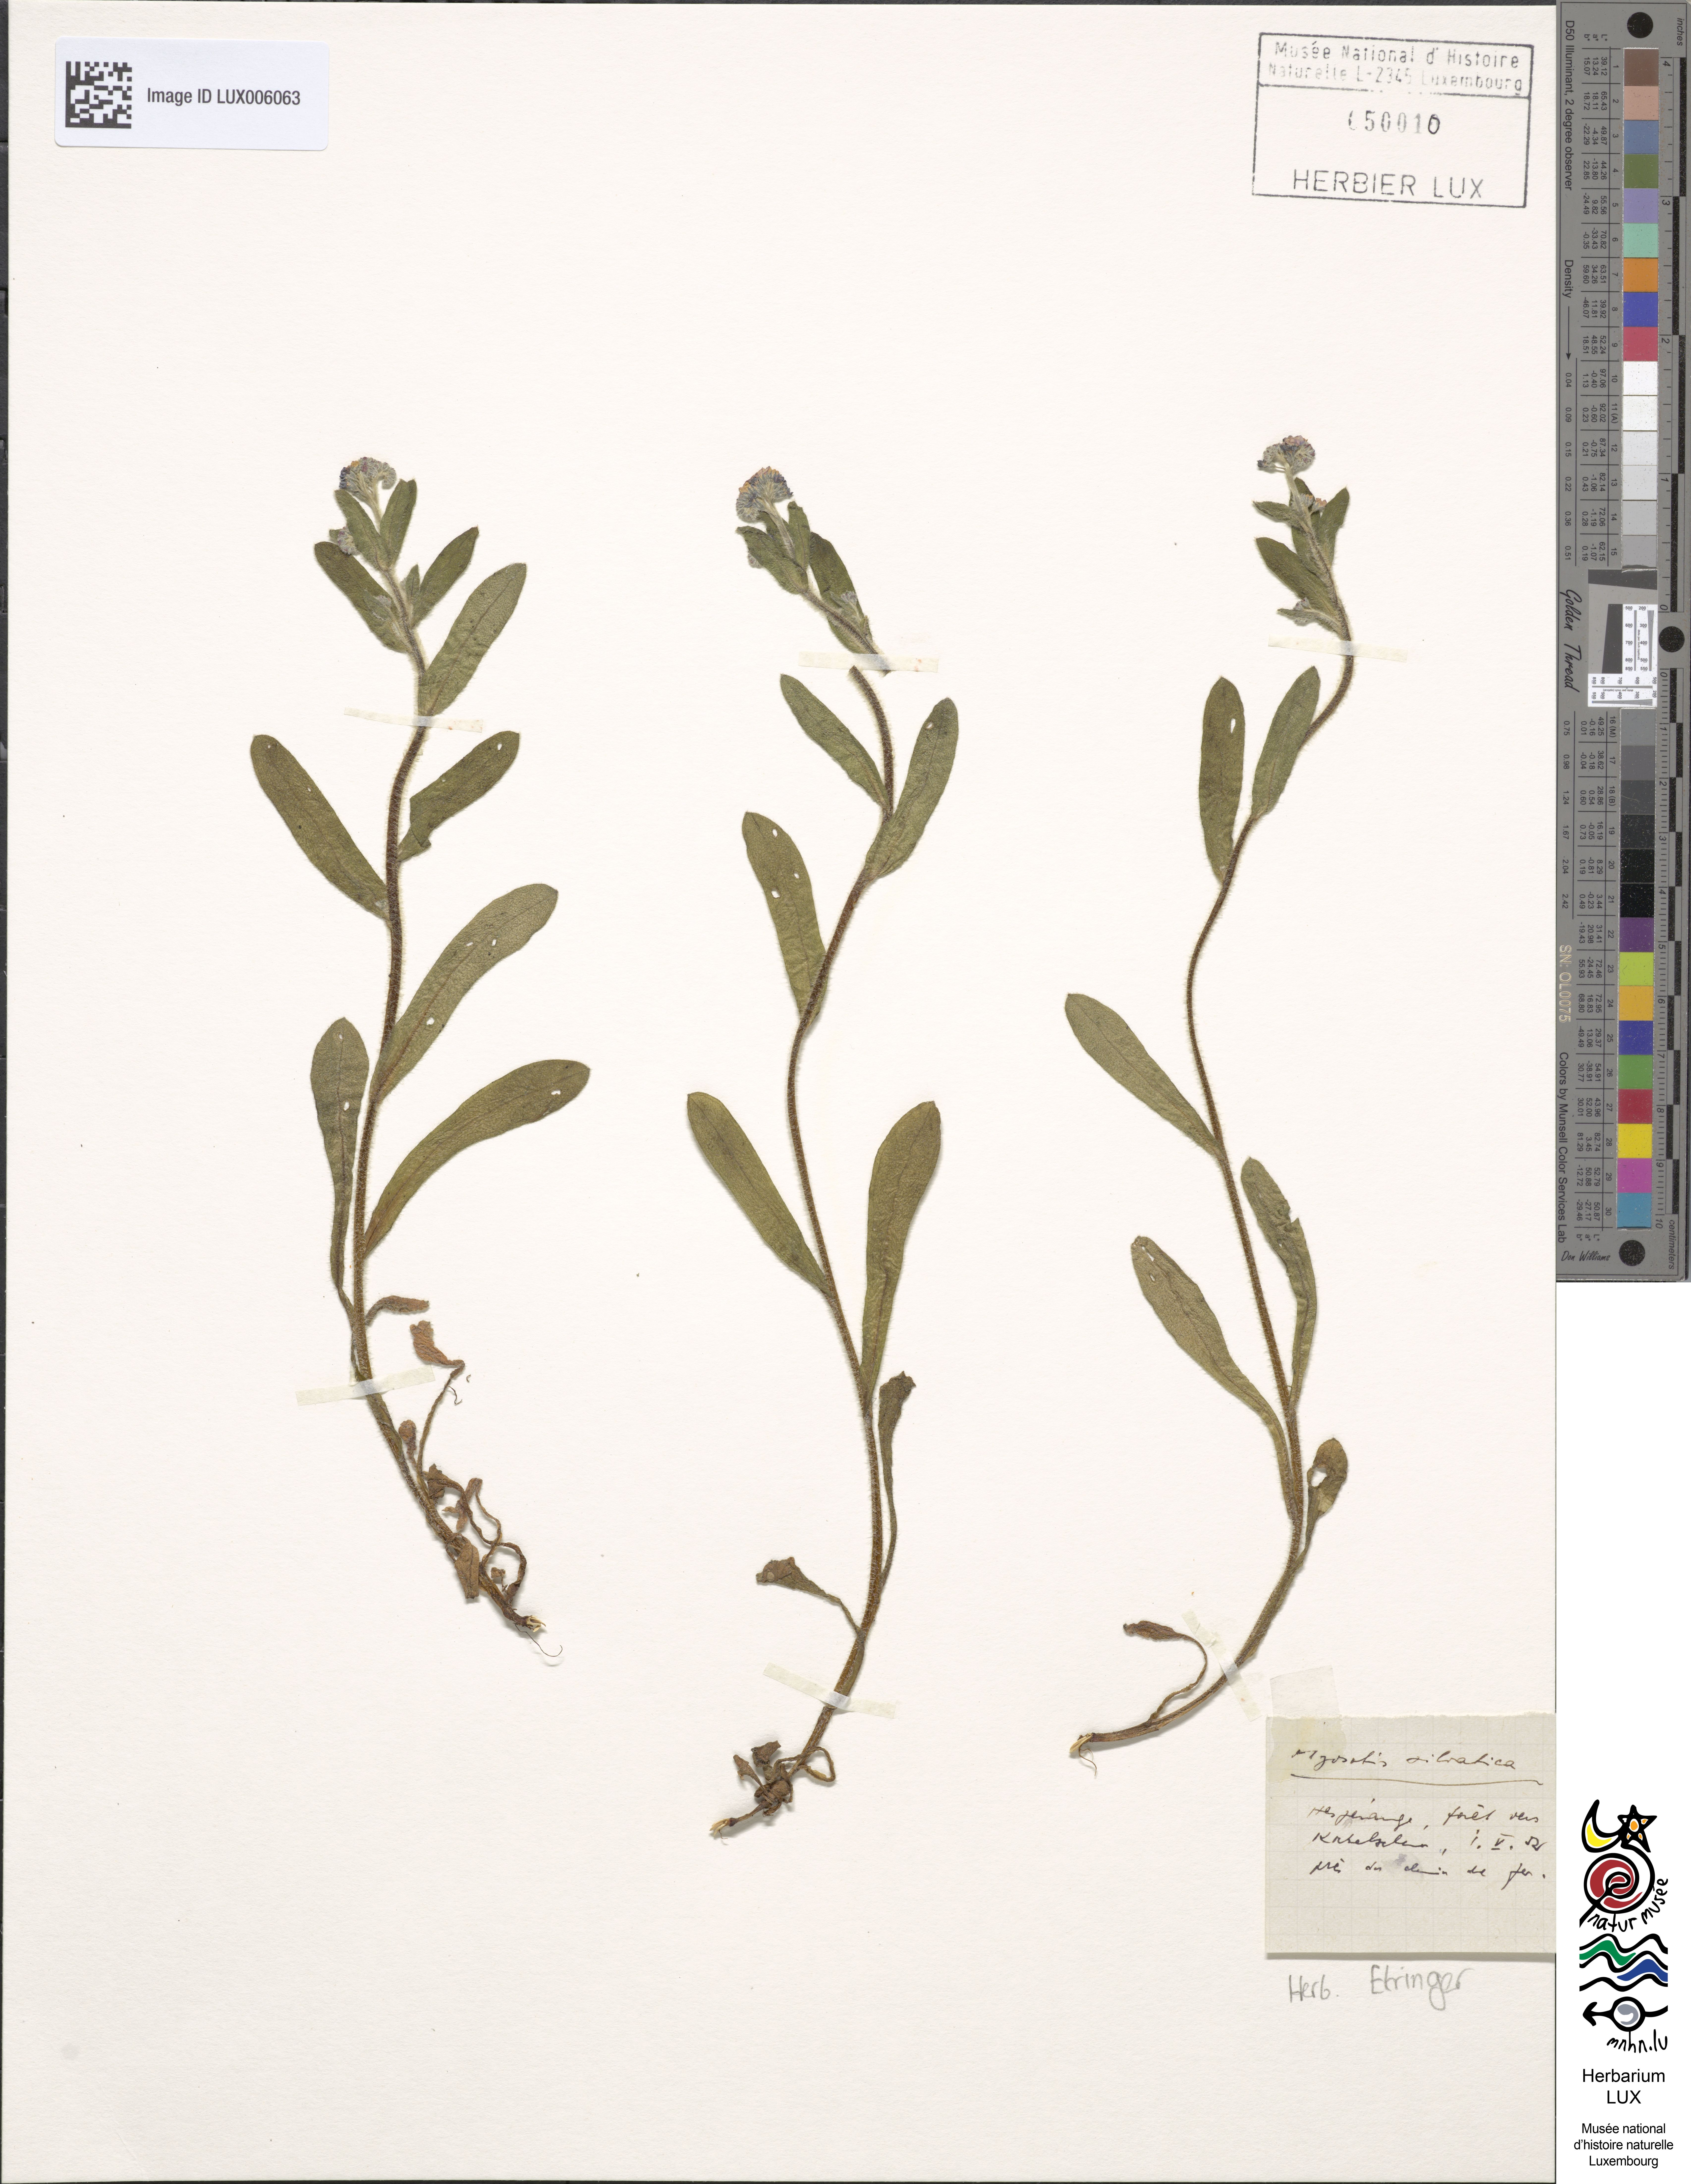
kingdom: Plantae
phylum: Tracheophyta
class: Magnoliopsida
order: Boraginales
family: Boraginaceae
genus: Myosotis
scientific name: Myosotis sylvatica
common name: Wood forget-me-not
